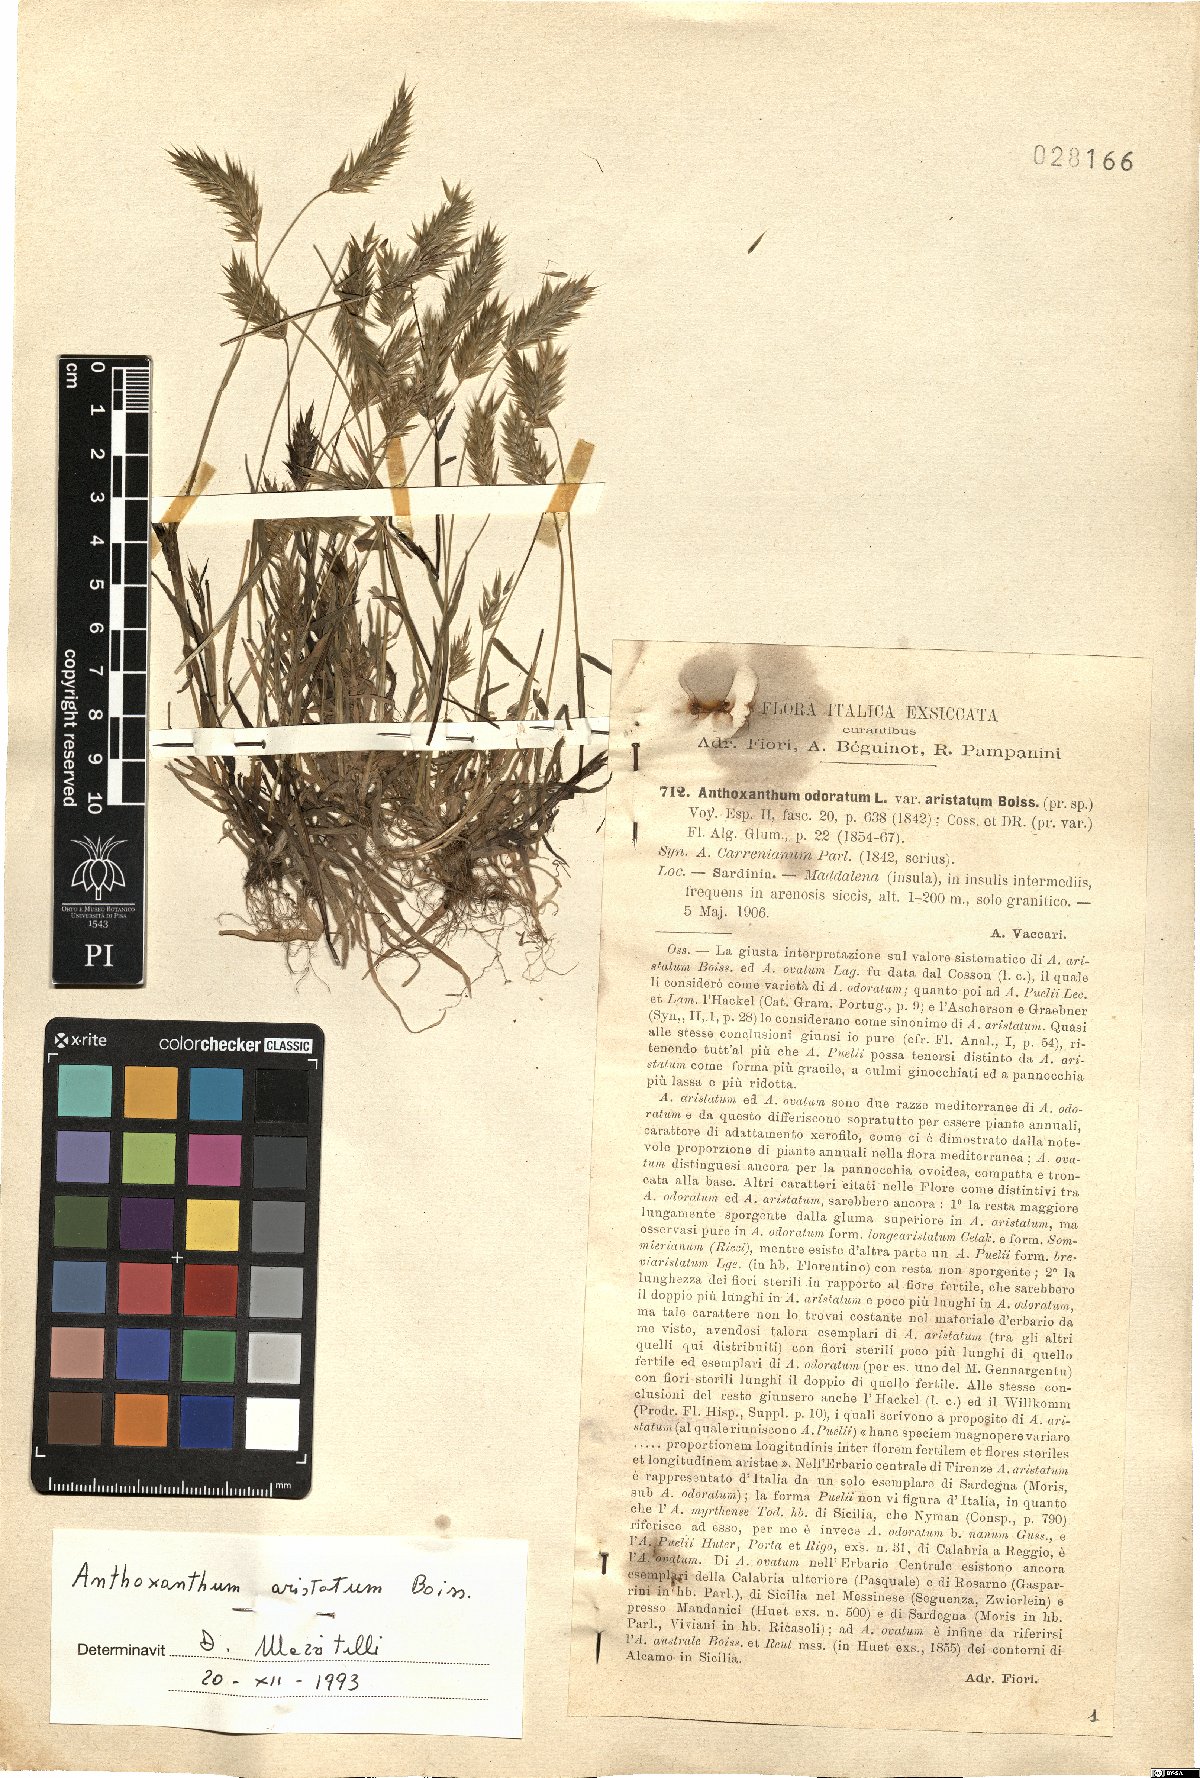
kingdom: Plantae
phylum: Tracheophyta
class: Liliopsida
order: Poales
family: Poaceae
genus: Anthoxanthum
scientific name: Anthoxanthum aristatum
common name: Annual vernal-grass
